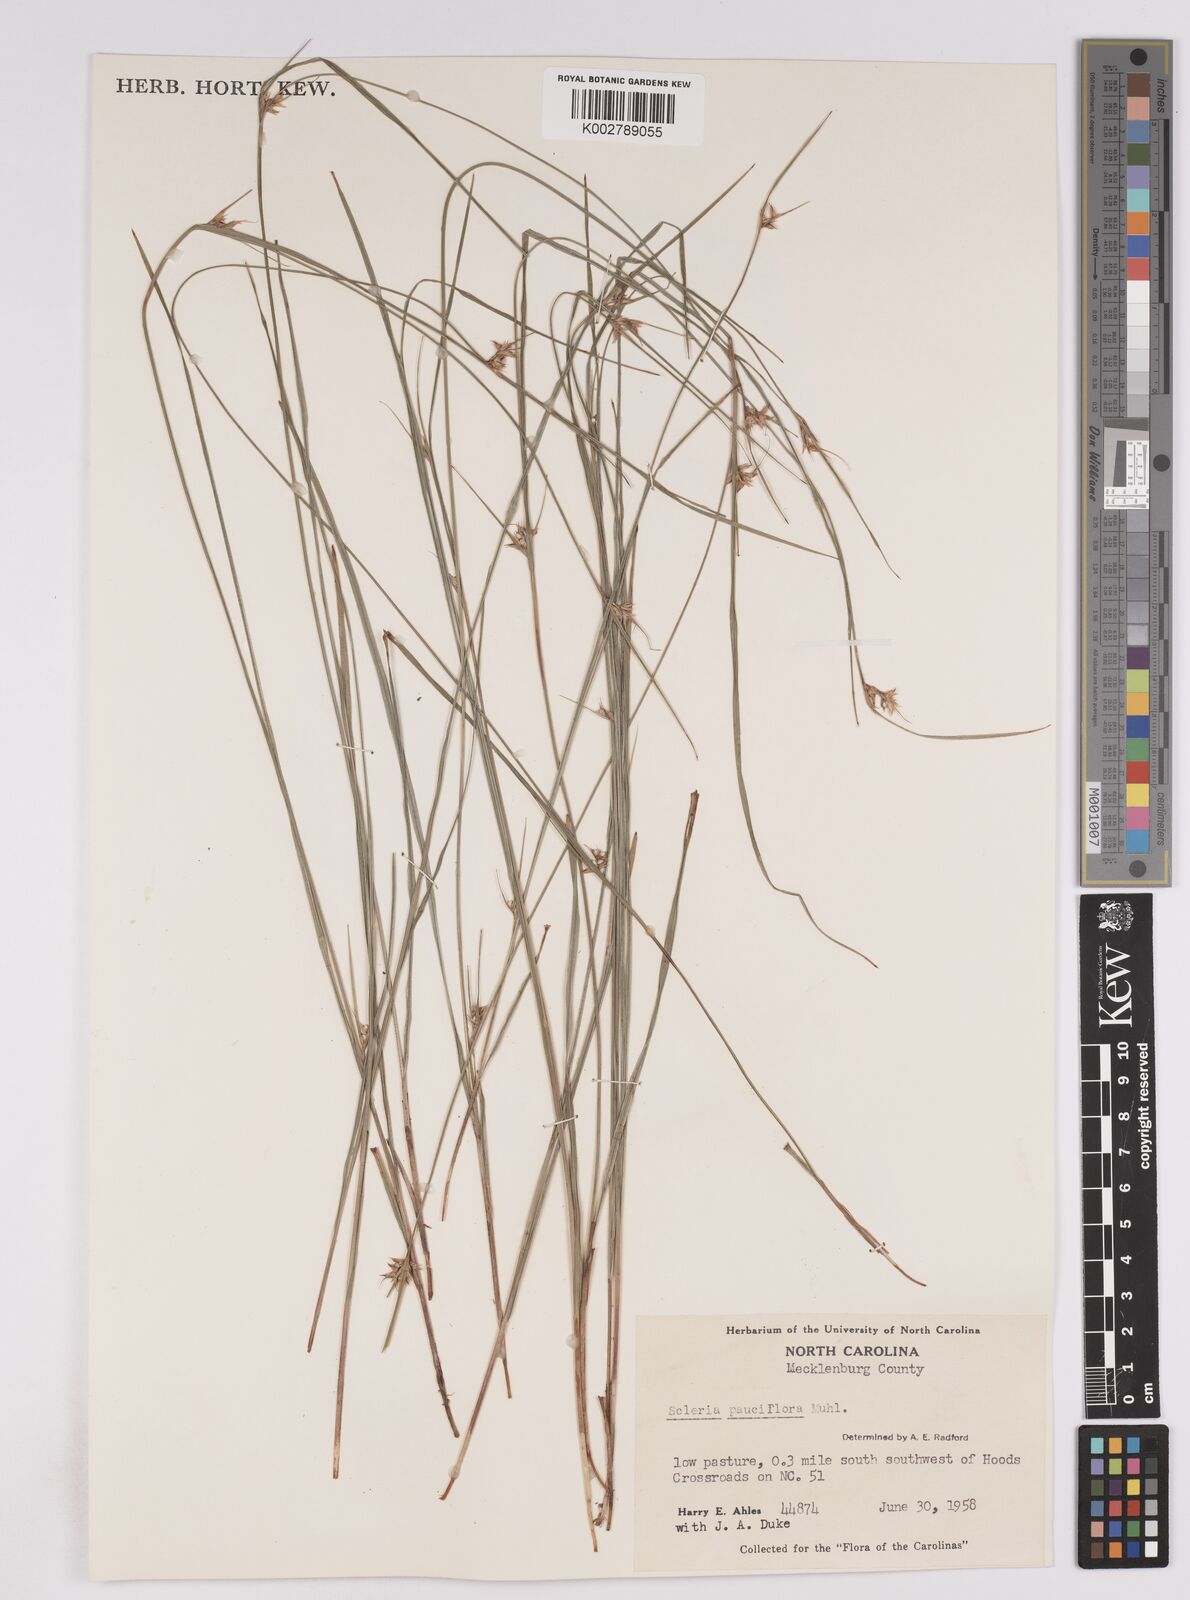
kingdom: Plantae
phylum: Tracheophyta
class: Liliopsida
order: Poales
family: Cyperaceae
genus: Scleria
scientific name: Scleria pauciflora
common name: Few-flowered nutrush
